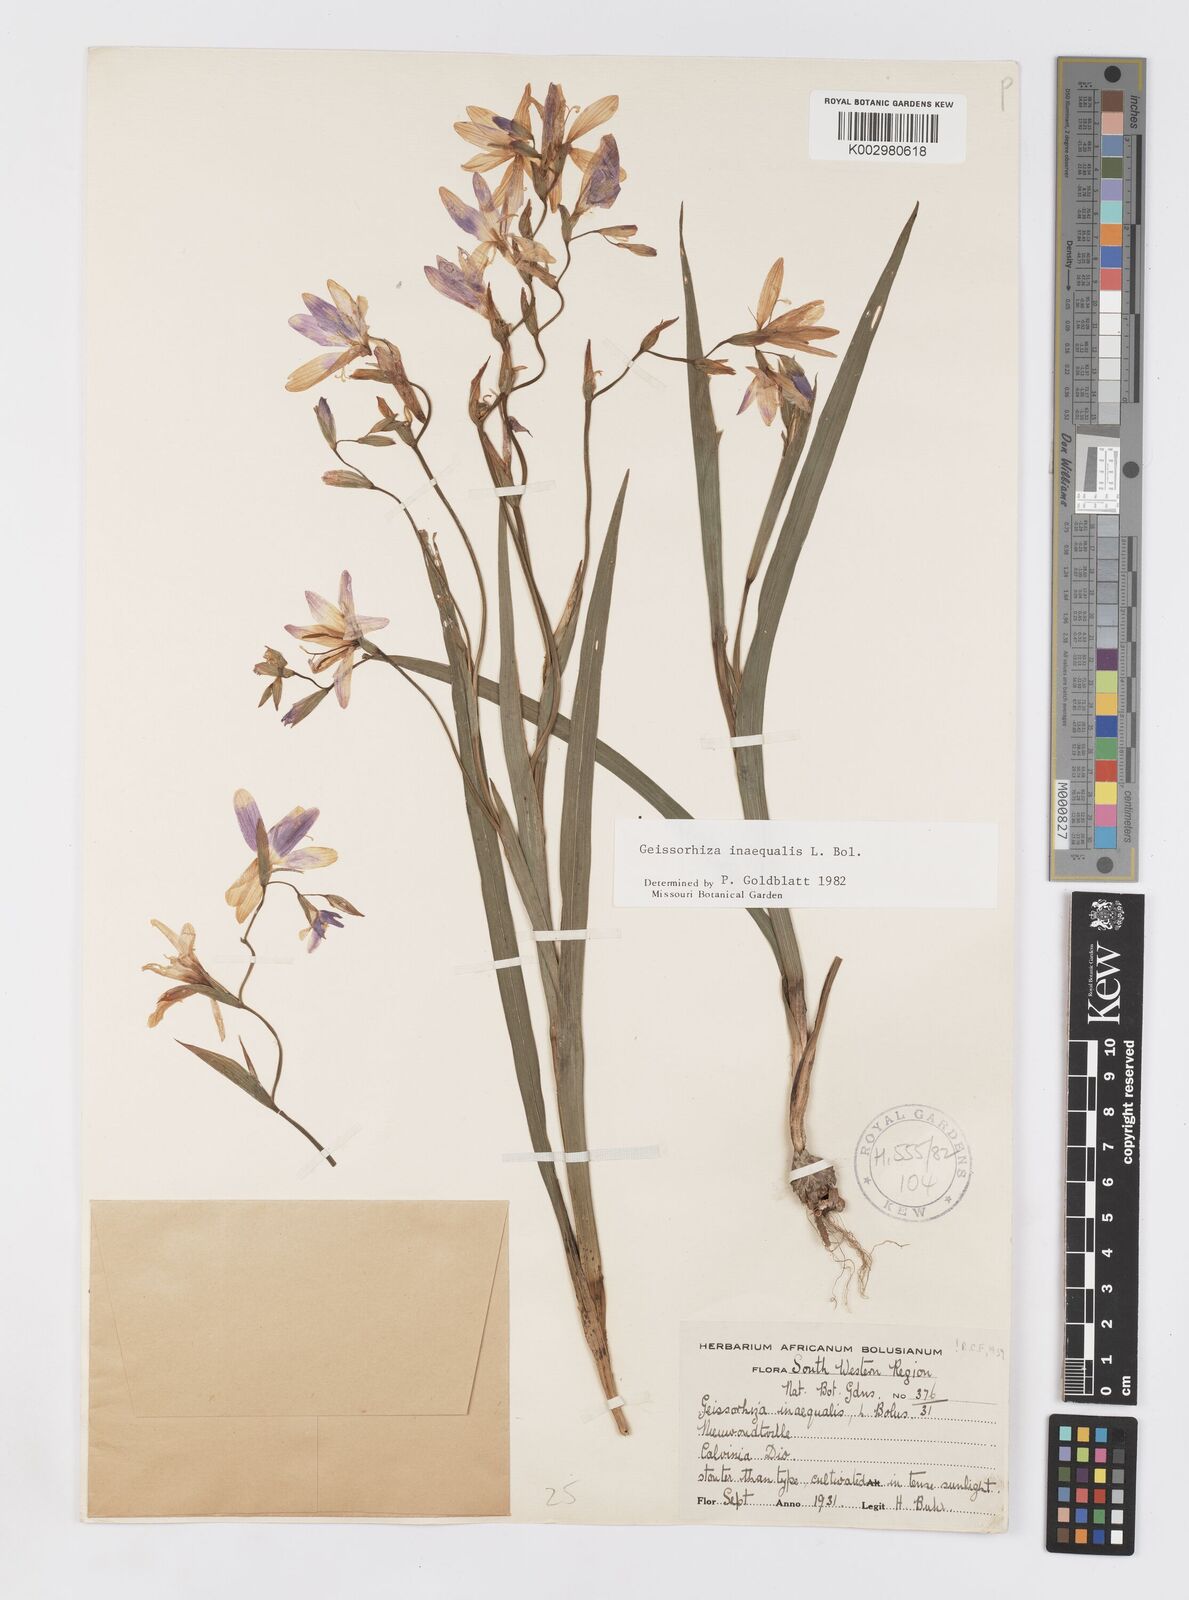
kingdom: Plantae
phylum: Tracheophyta
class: Liliopsida
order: Asparagales
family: Iridaceae
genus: Geissorhiza
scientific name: Geissorhiza inaequalis
